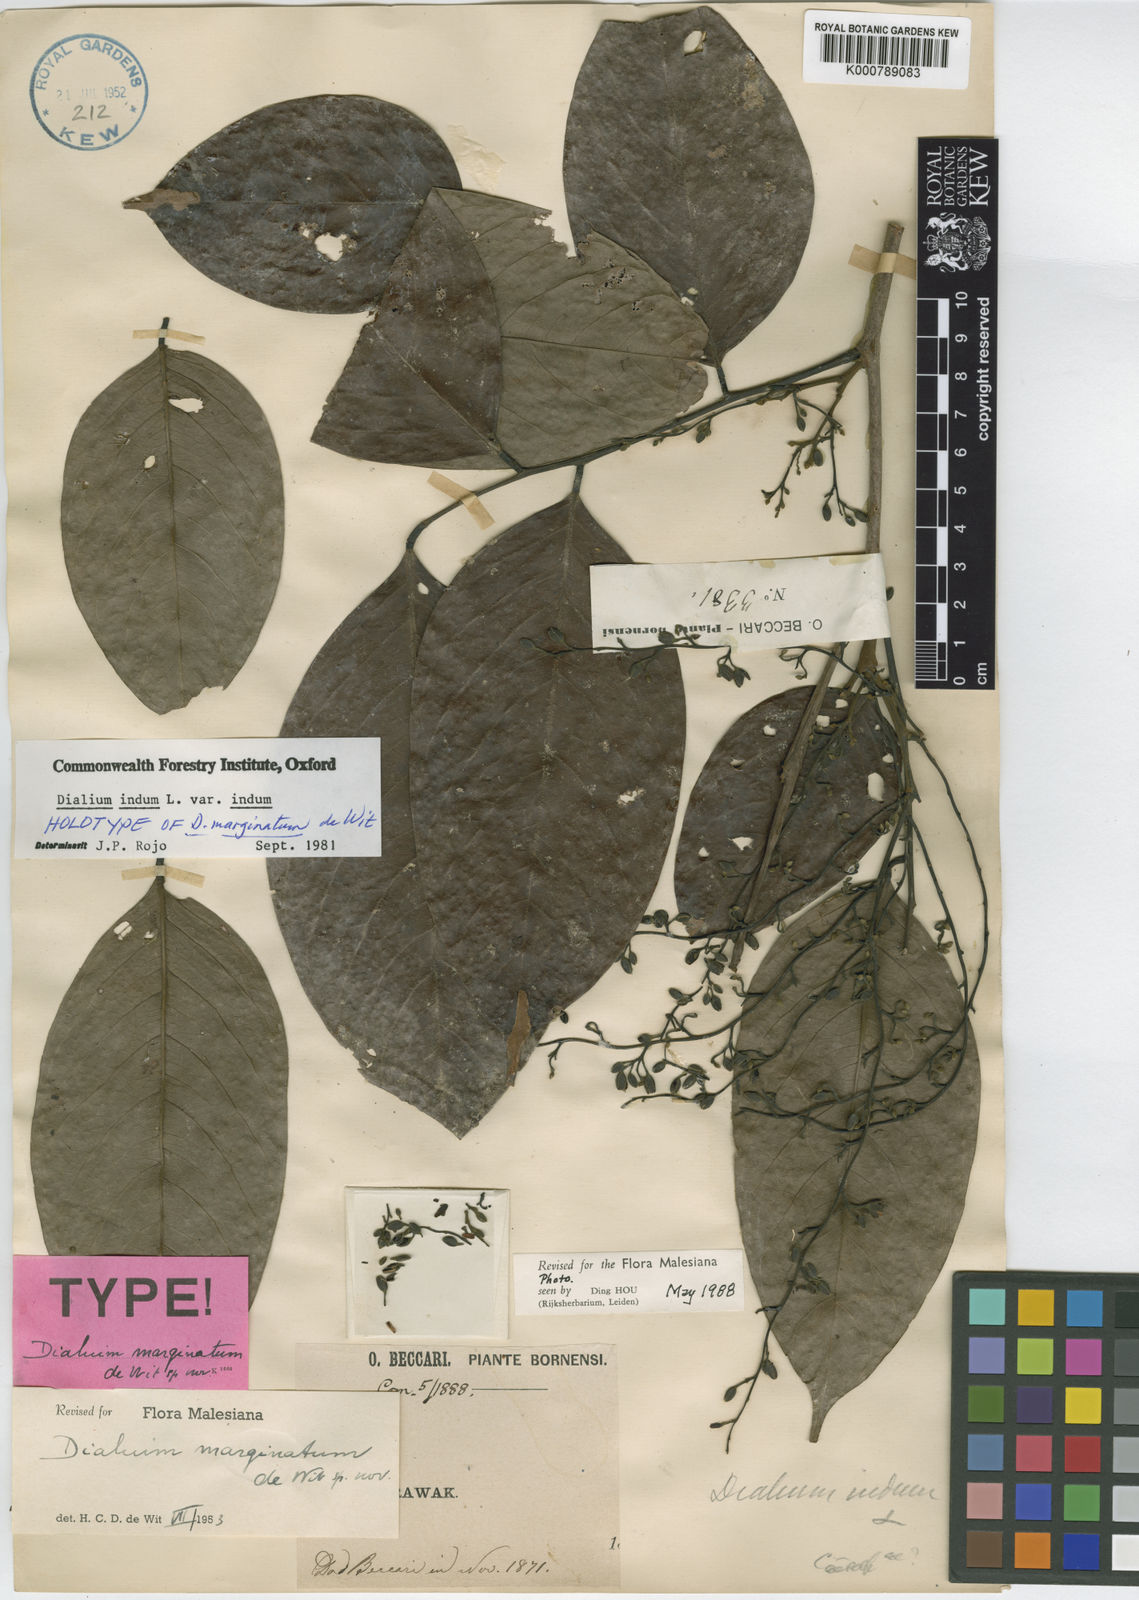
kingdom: Plantae
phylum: Tracheophyta
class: Magnoliopsida
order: Fabales
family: Fabaceae
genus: Dialium
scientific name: Dialium indum
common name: Tamarind-plum
